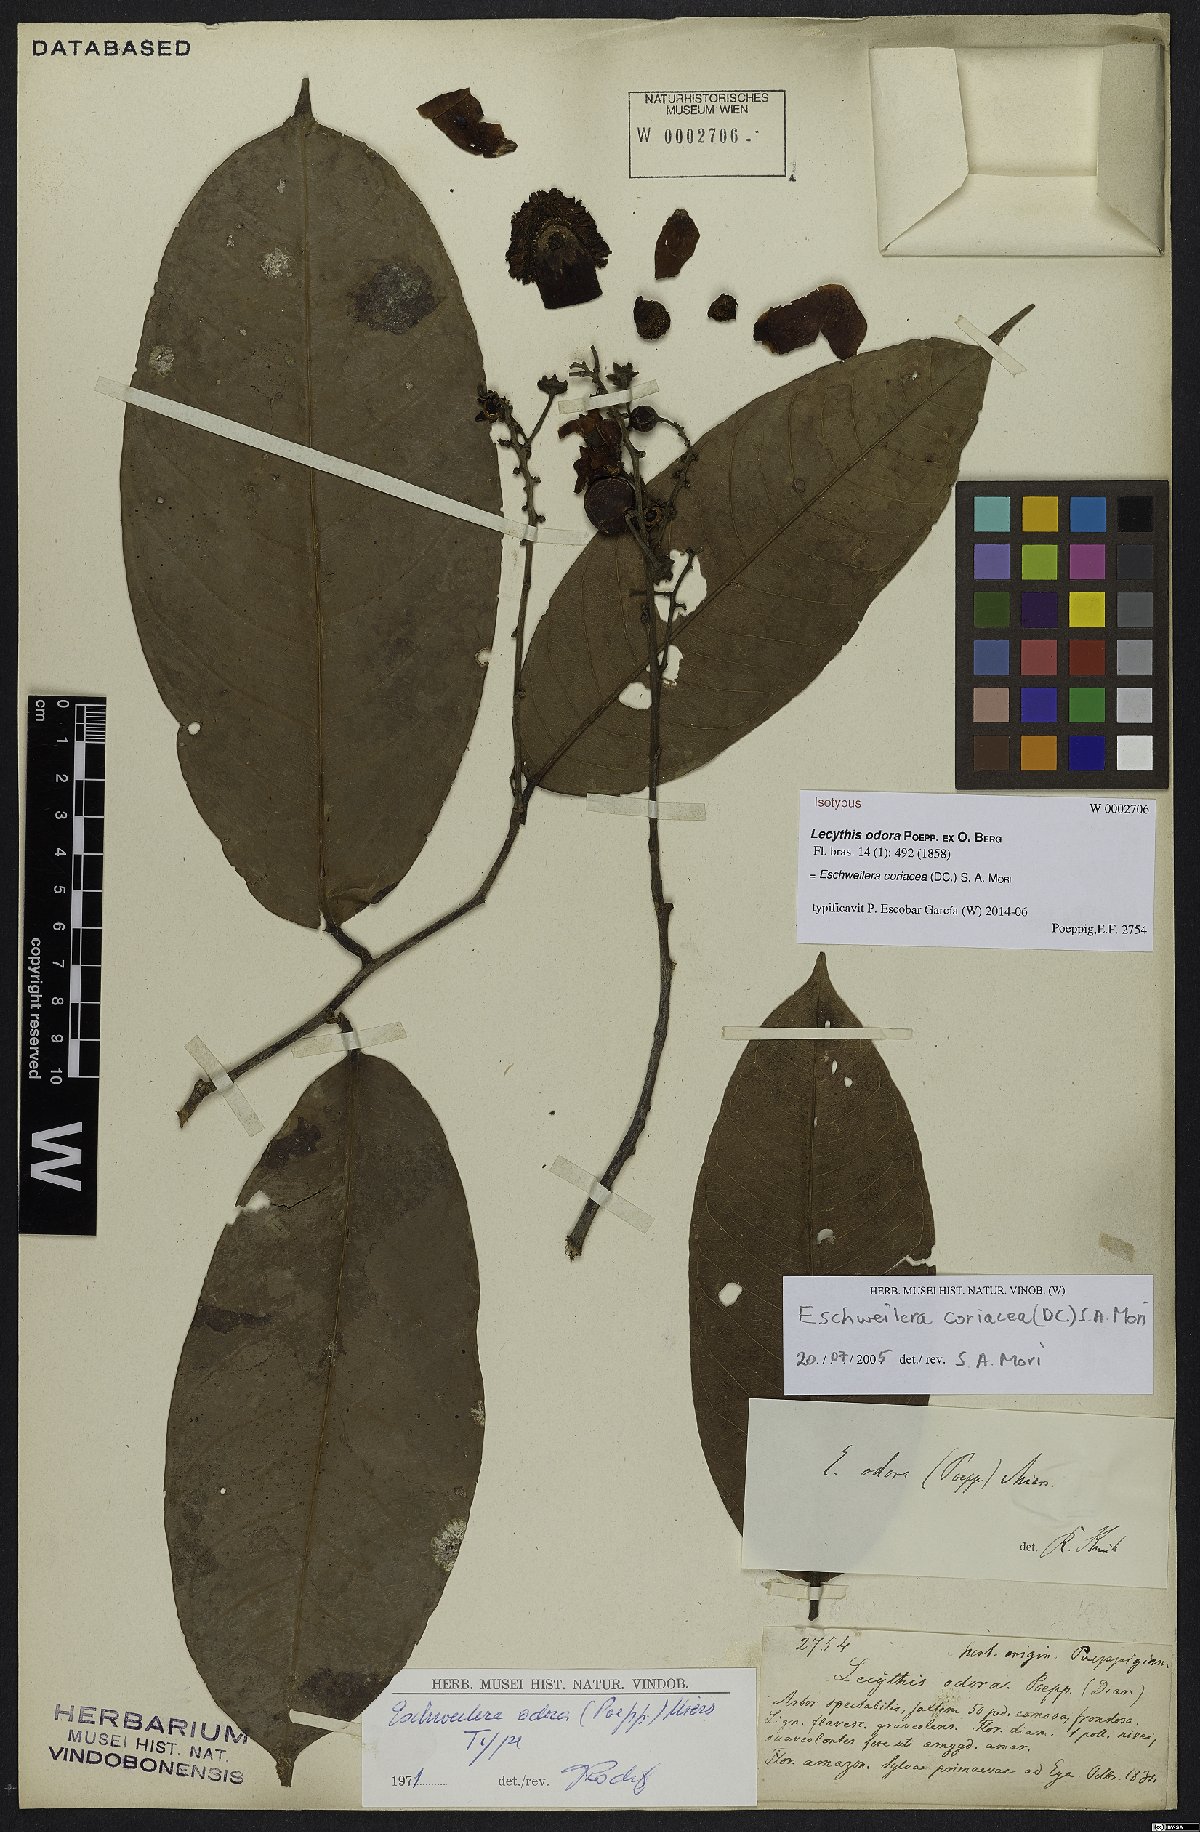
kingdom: Plantae
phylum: Tracheophyta
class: Magnoliopsida
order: Ericales
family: Lecythidaceae
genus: Eschweilera
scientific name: Eschweilera coriacea
